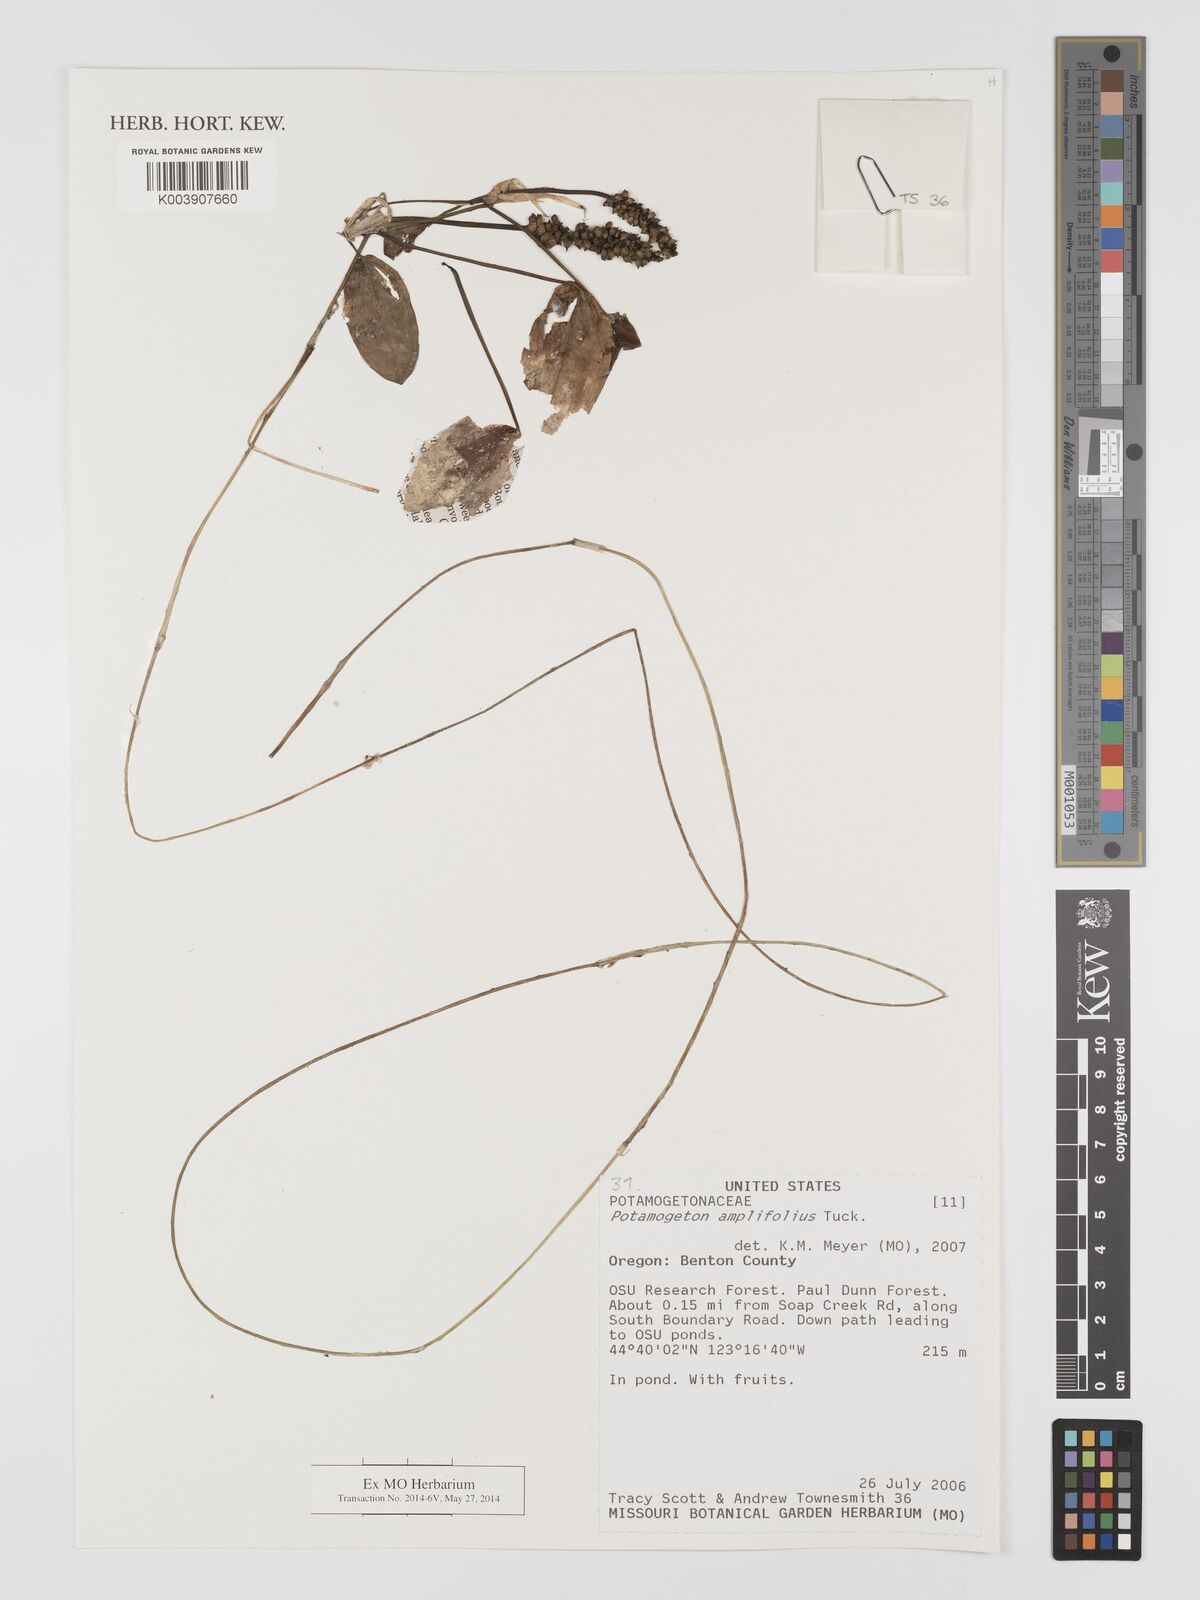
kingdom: Plantae
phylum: Tracheophyta
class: Liliopsida
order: Alismatales
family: Potamogetonaceae
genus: Potamogeton
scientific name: Potamogeton amplifolius
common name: Broad-leaved pondweed
